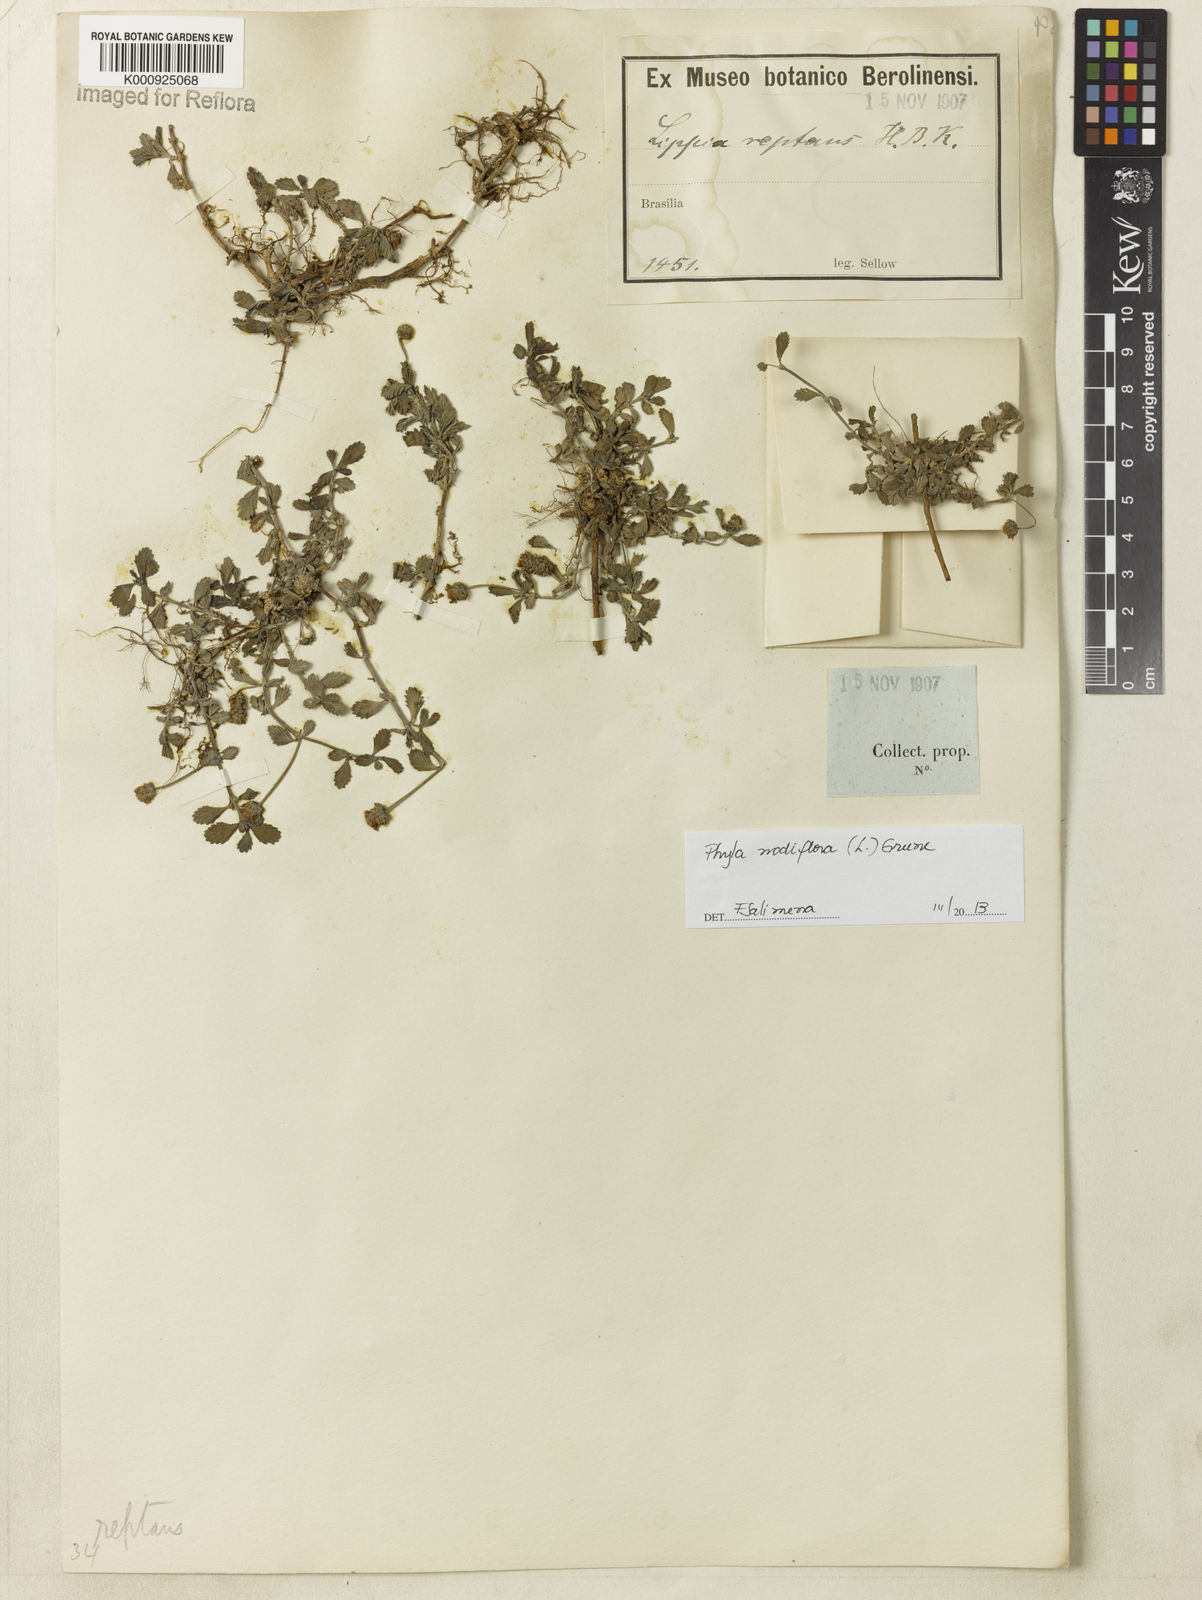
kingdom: Plantae
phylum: Tracheophyta
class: Magnoliopsida
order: Lamiales
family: Verbenaceae
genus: Lippia
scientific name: Lippia
